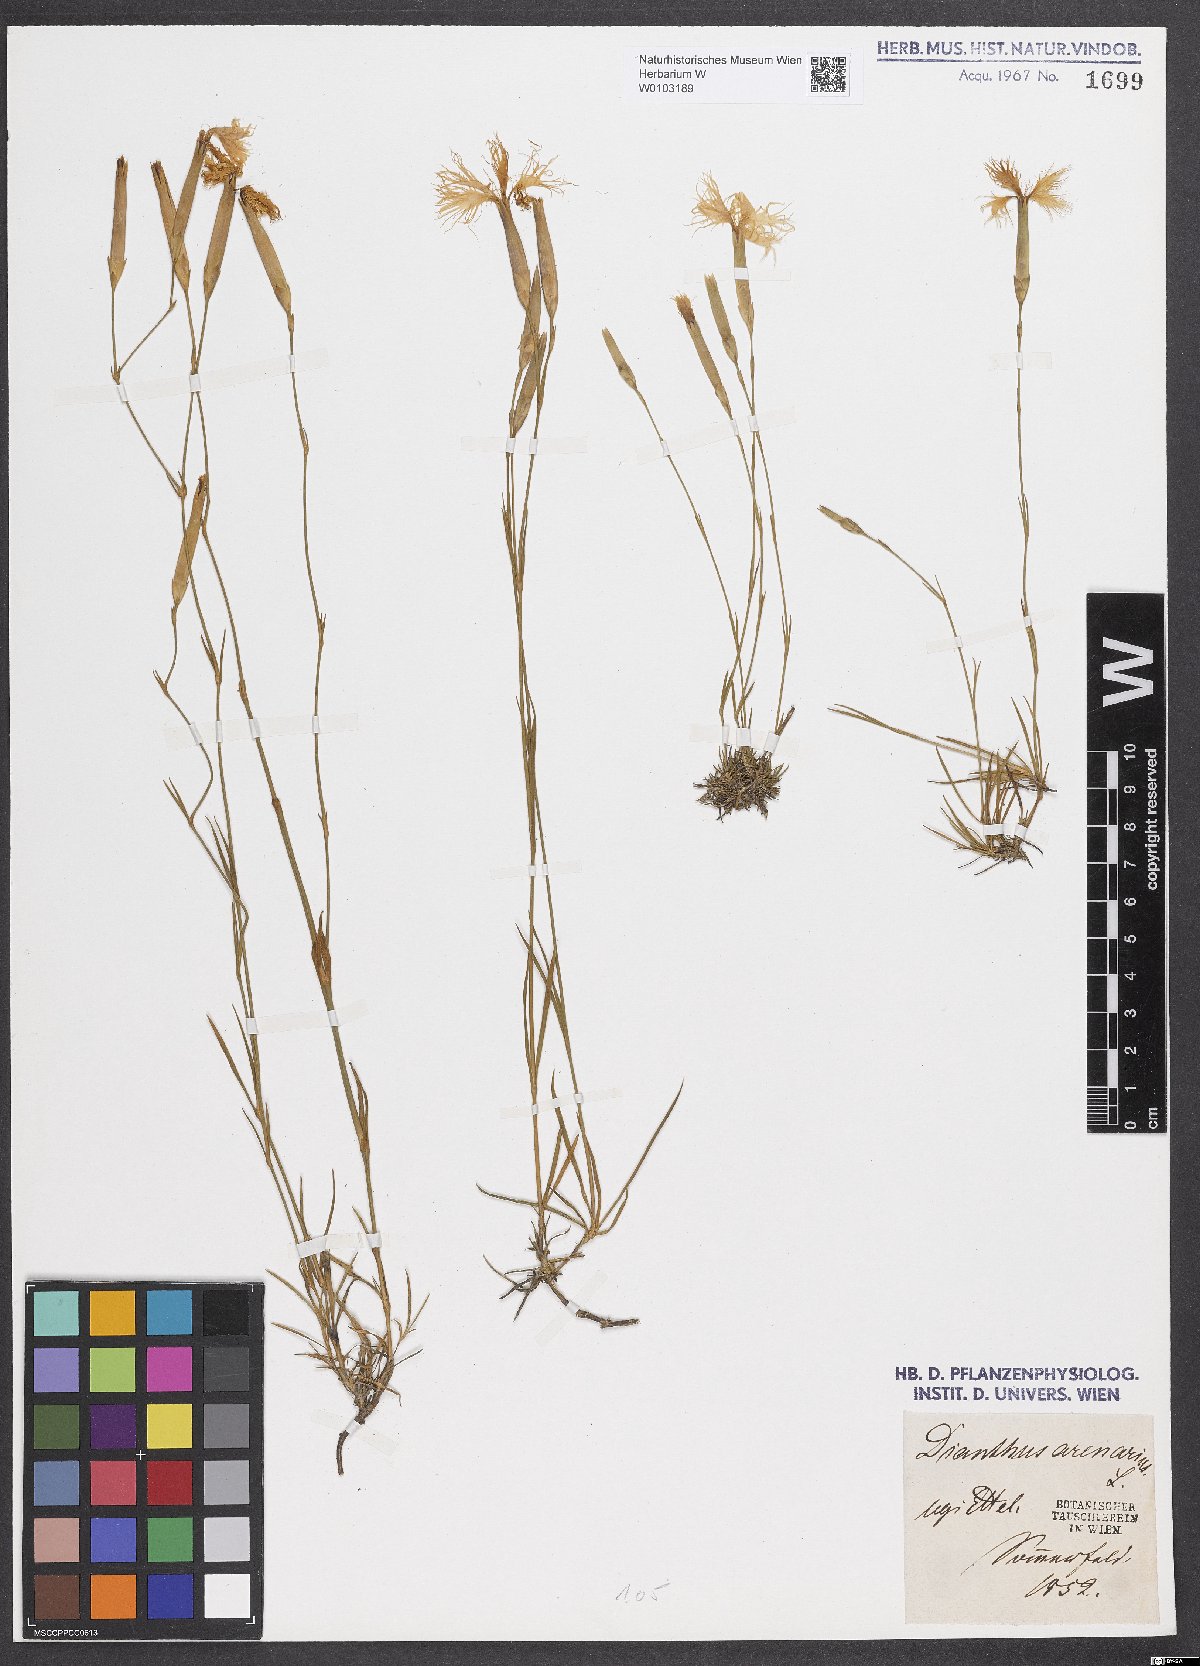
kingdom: Plantae
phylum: Tracheophyta
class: Magnoliopsida
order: Caryophyllales
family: Caryophyllaceae
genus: Dianthus
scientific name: Dianthus arenarius
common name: Stone pink
